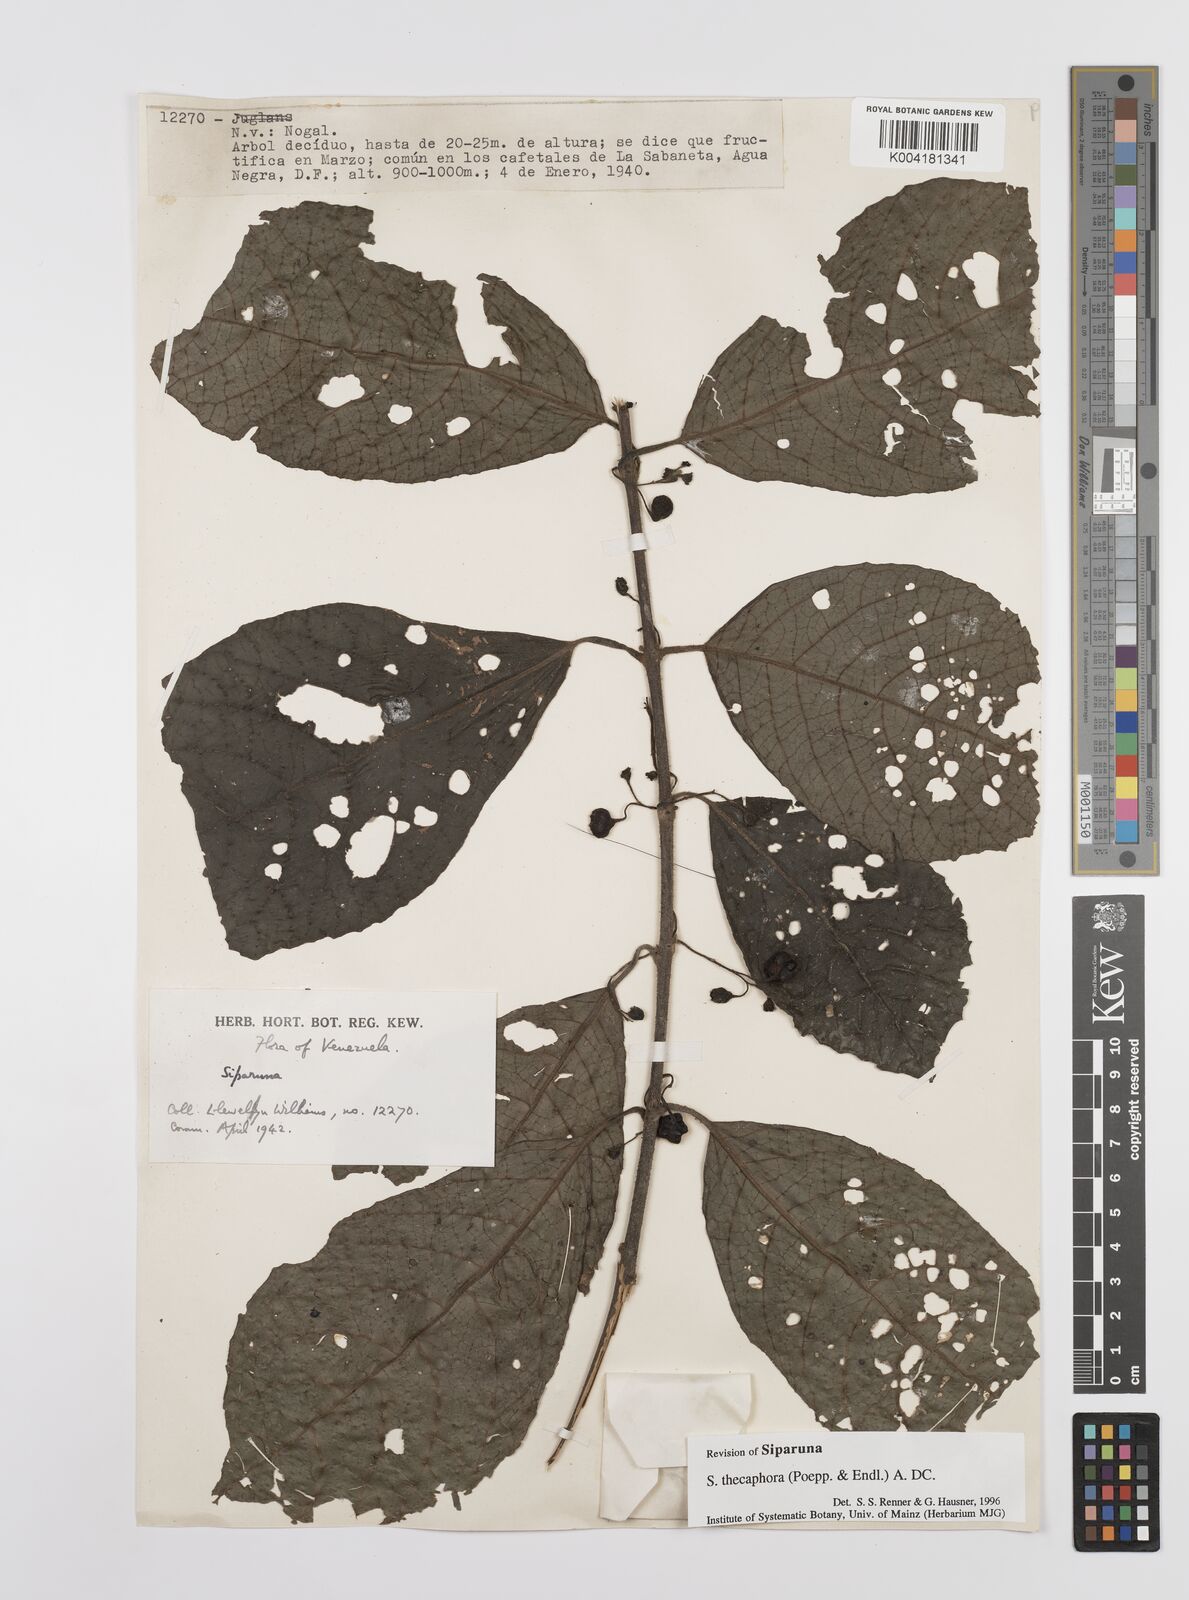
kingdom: Plantae
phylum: Tracheophyta
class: Magnoliopsida
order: Laurales
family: Siparunaceae
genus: Siparuna
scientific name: Siparuna thecaphora
